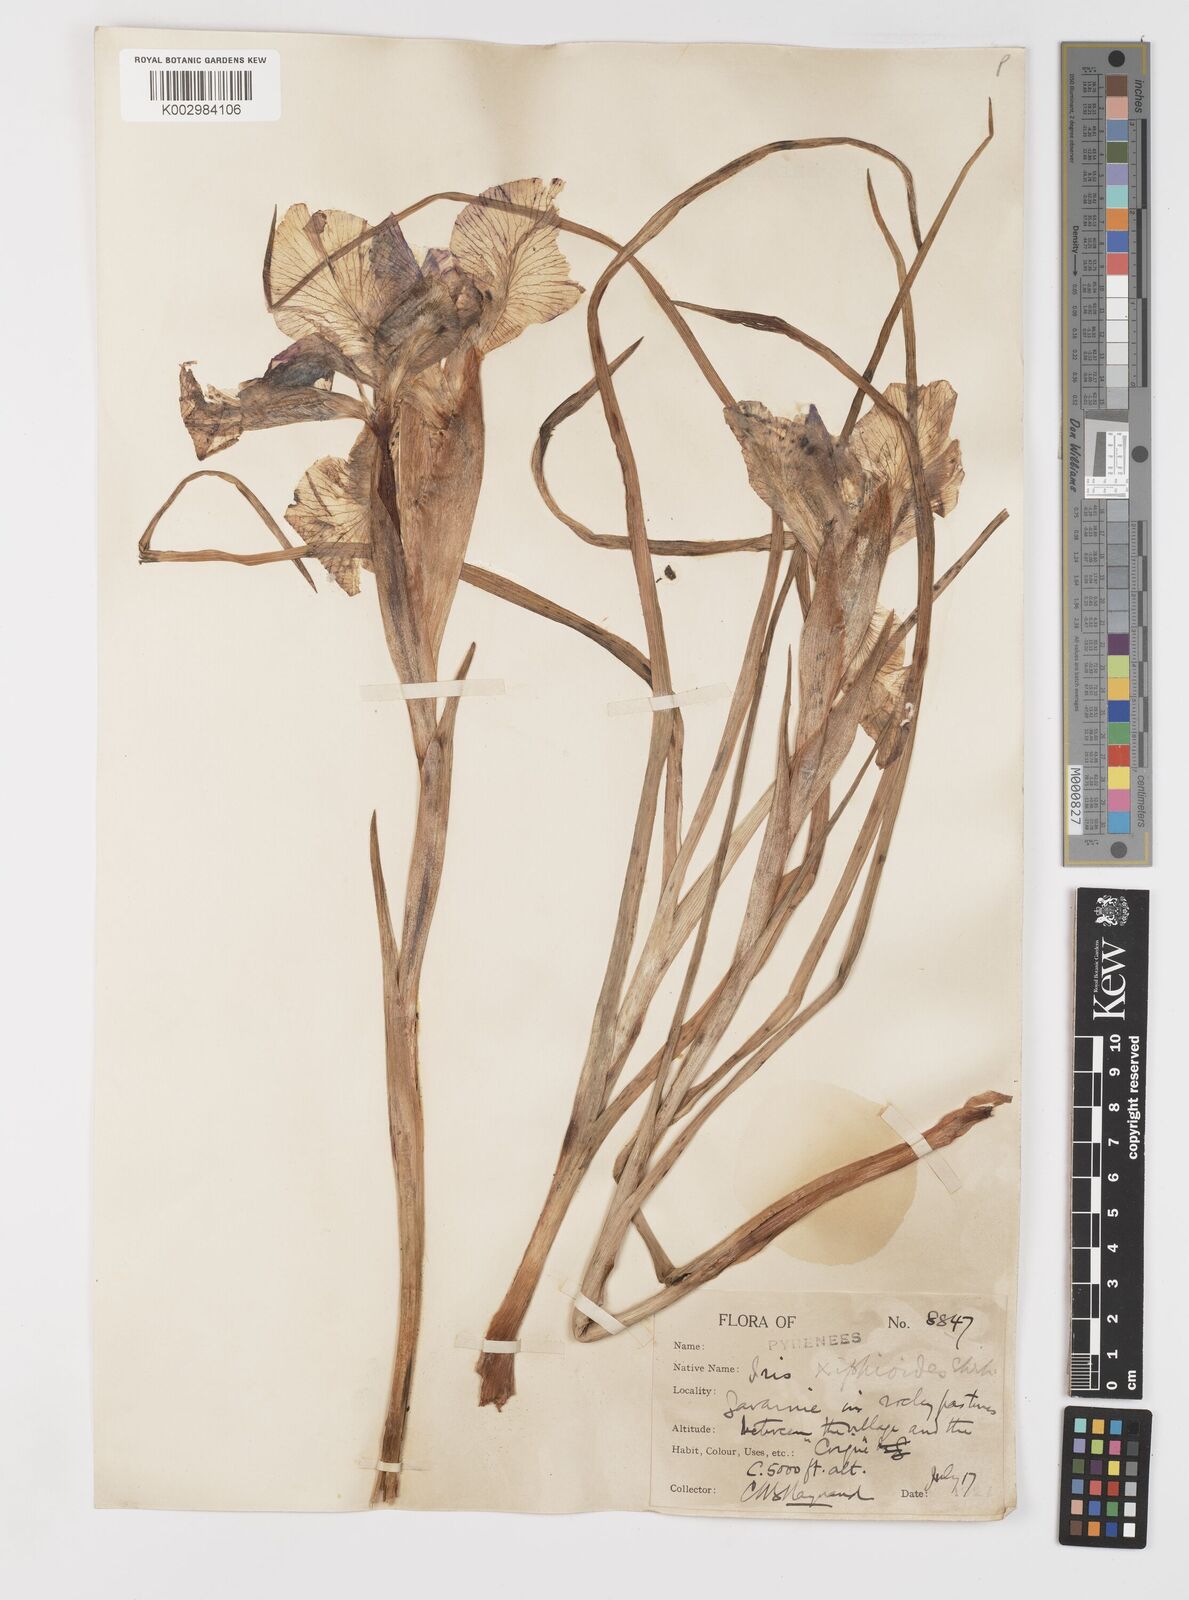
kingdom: Plantae
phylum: Tracheophyta
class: Liliopsida
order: Asparagales
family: Iridaceae
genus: Iris
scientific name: Iris jacquinii
